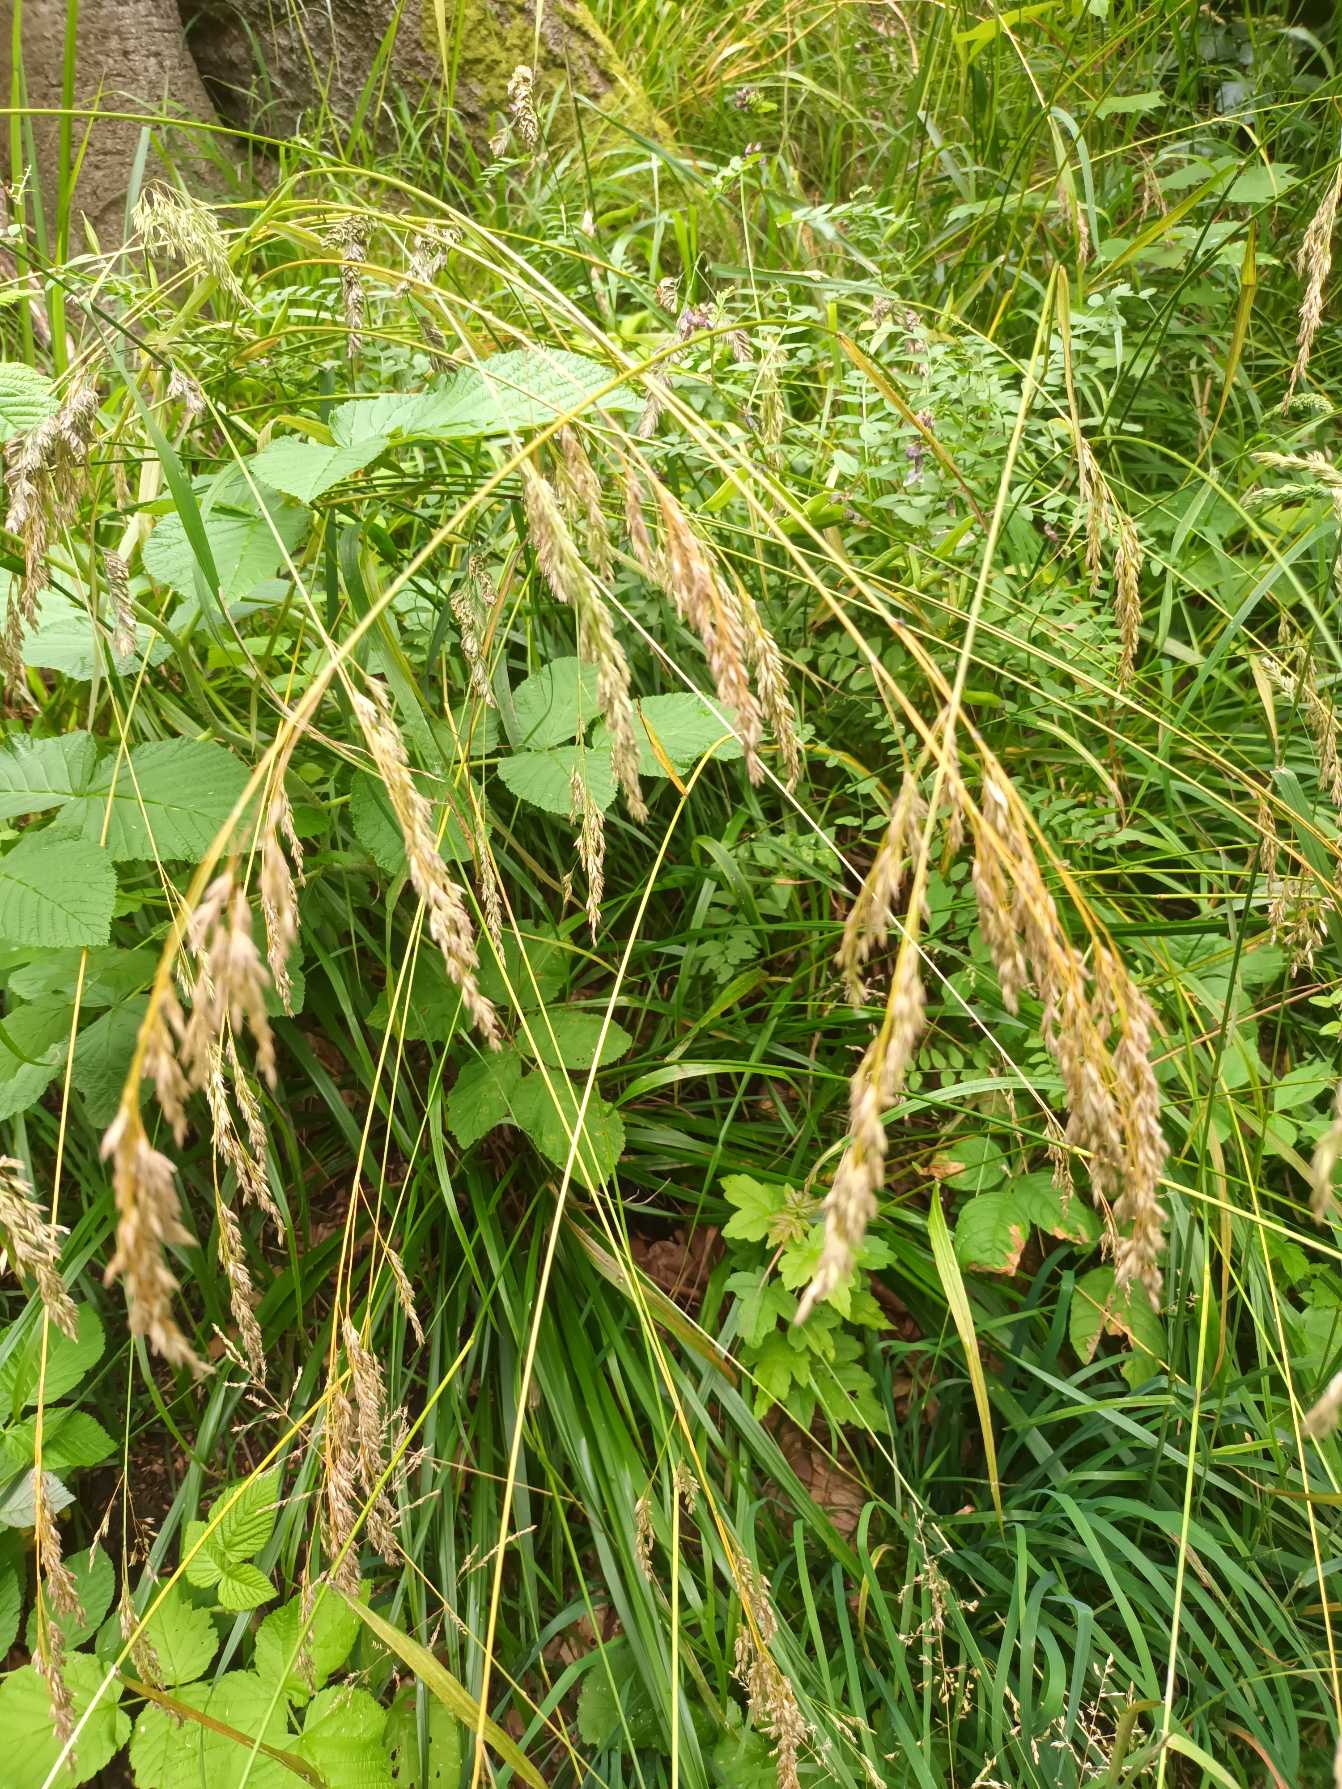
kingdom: Plantae
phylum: Tracheophyta
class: Liliopsida
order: Poales
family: Poaceae
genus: Festuca
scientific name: Festuca altissima
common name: Skov-svingel
